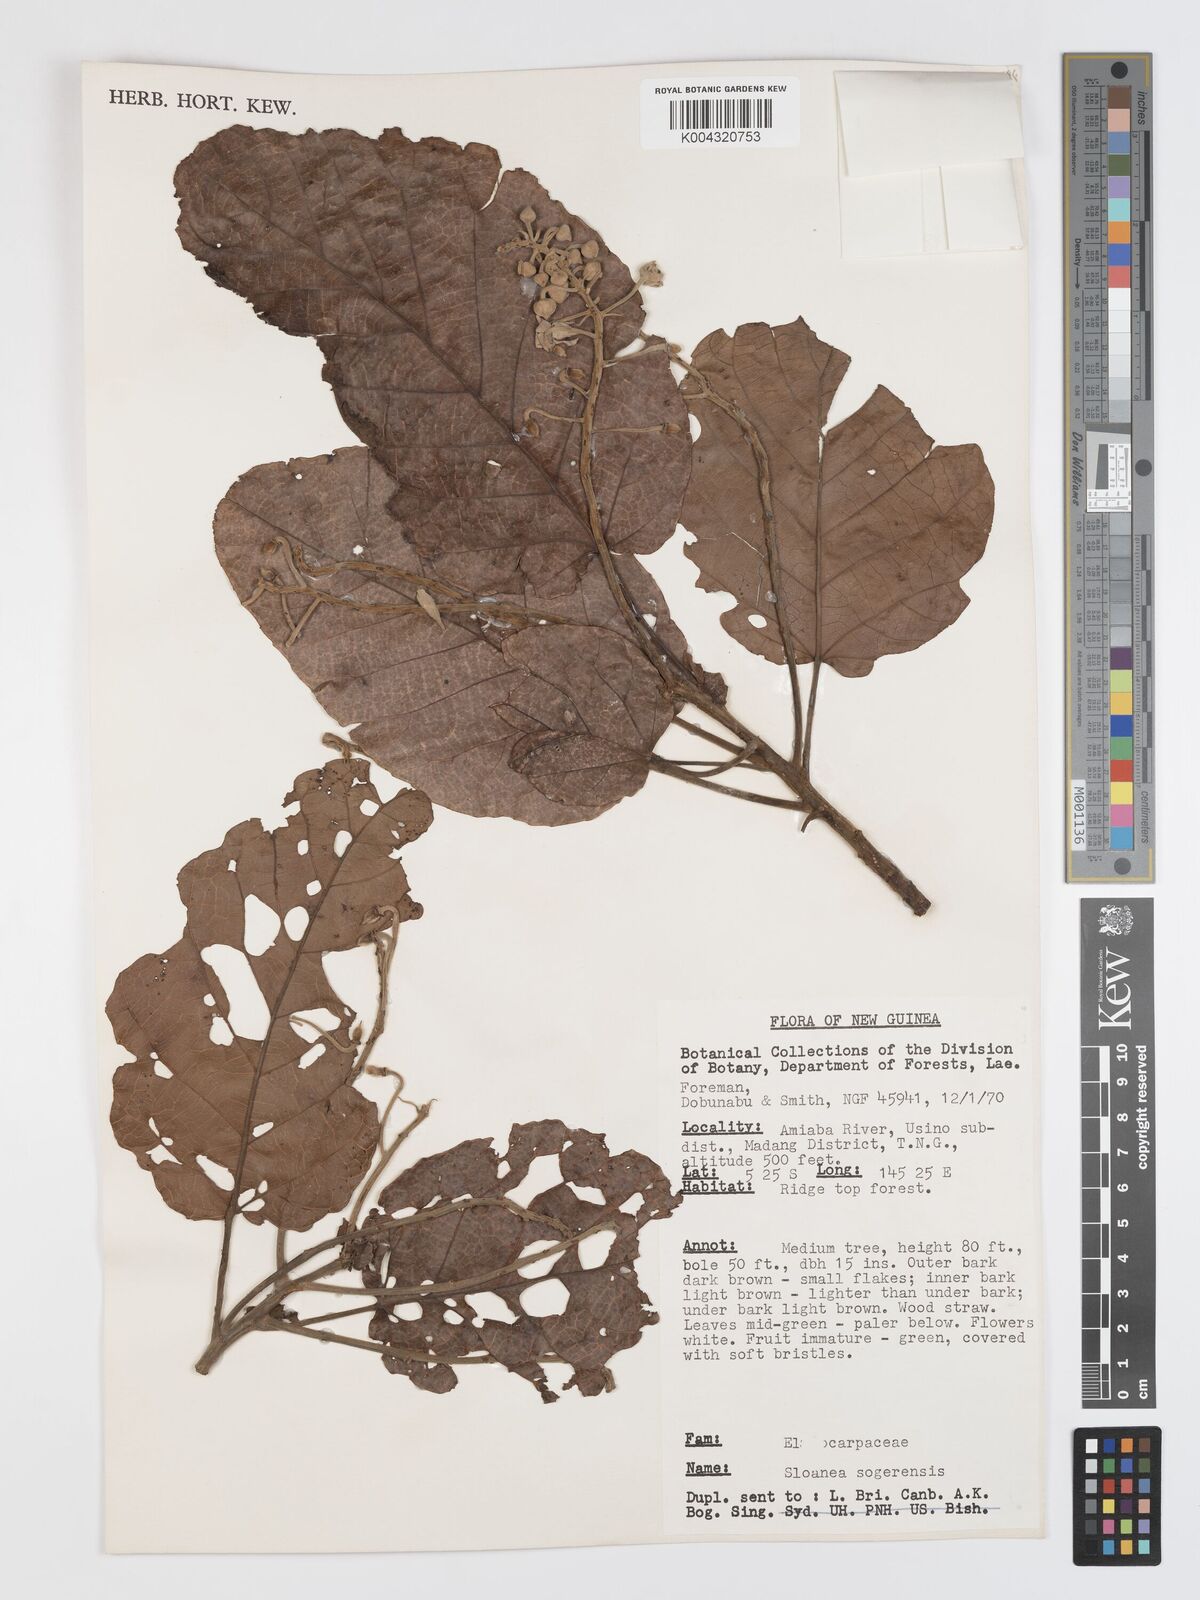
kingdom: Plantae
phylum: Tracheophyta
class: Magnoliopsida
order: Oxalidales
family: Elaeocarpaceae
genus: Sloanea
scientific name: Sloanea sogerensis
